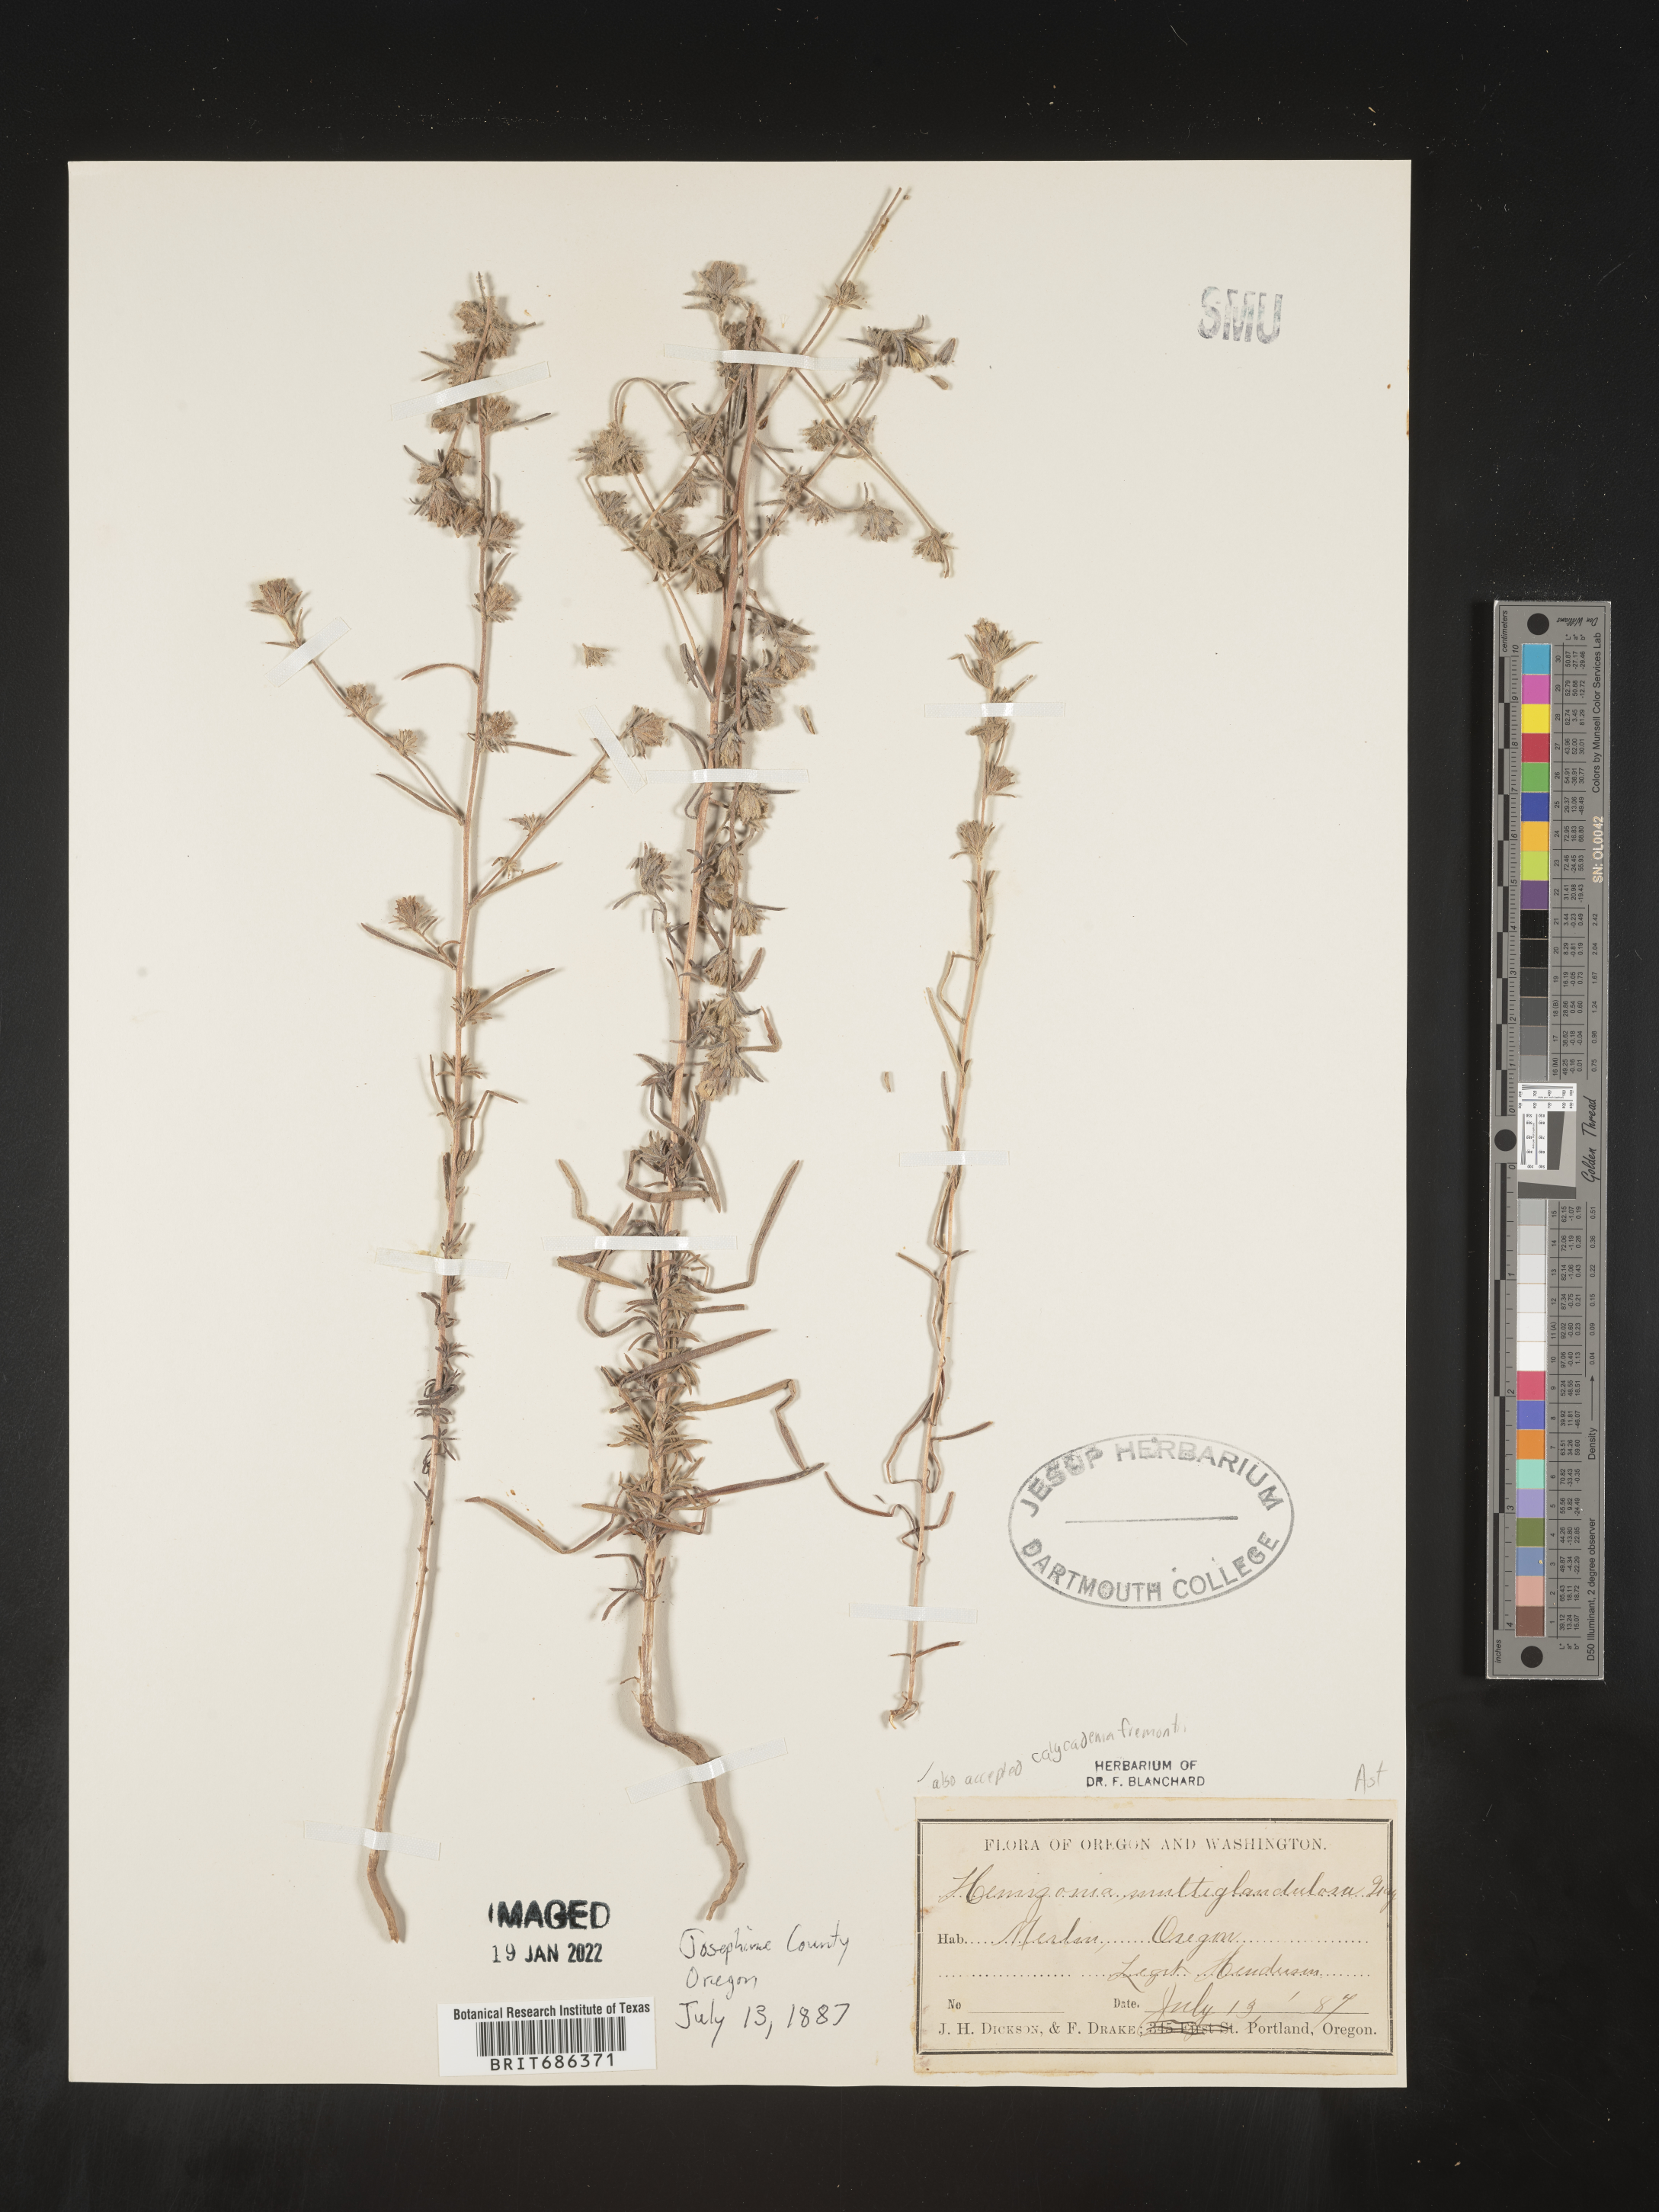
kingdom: Plantae
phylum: Tracheophyta
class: Magnoliopsida
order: Asterales
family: Asteraceae
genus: Calycadenia
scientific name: Calycadenia
